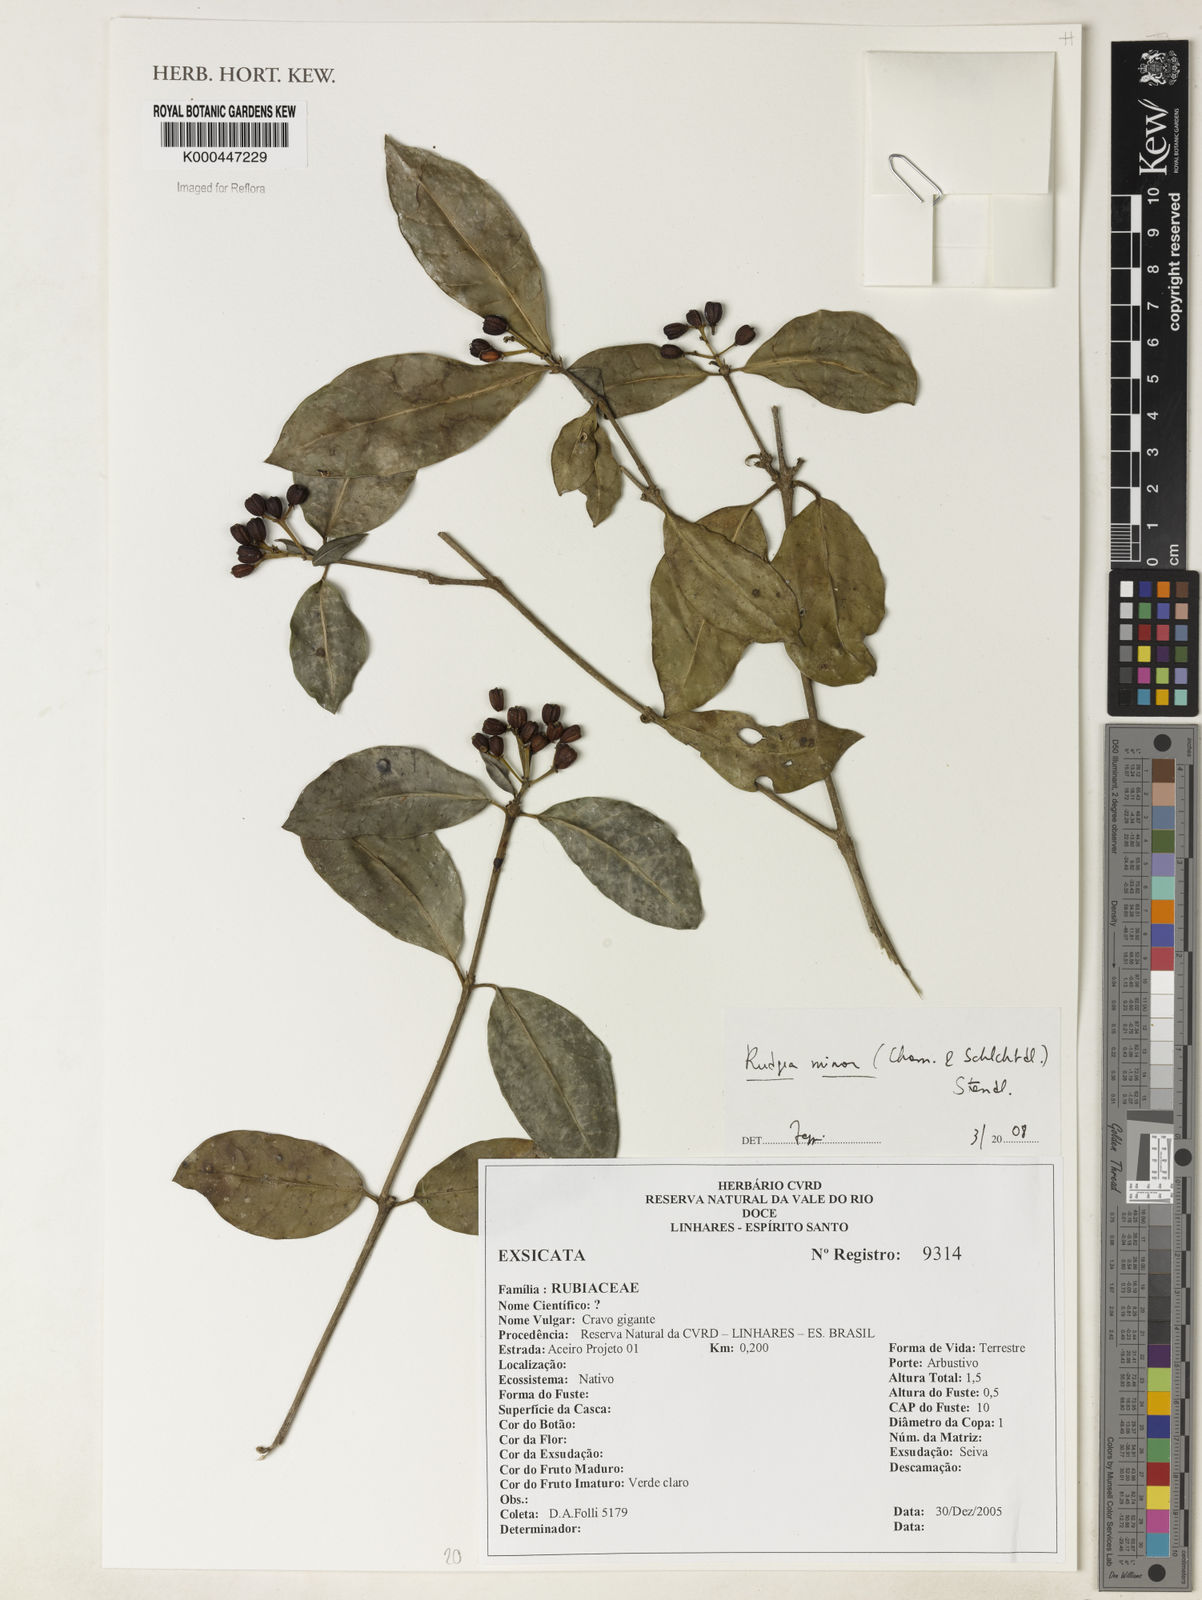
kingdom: Plantae
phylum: Tracheophyta
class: Magnoliopsida
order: Gentianales
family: Rubiaceae
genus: Rudgea
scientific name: Rudgea minor
